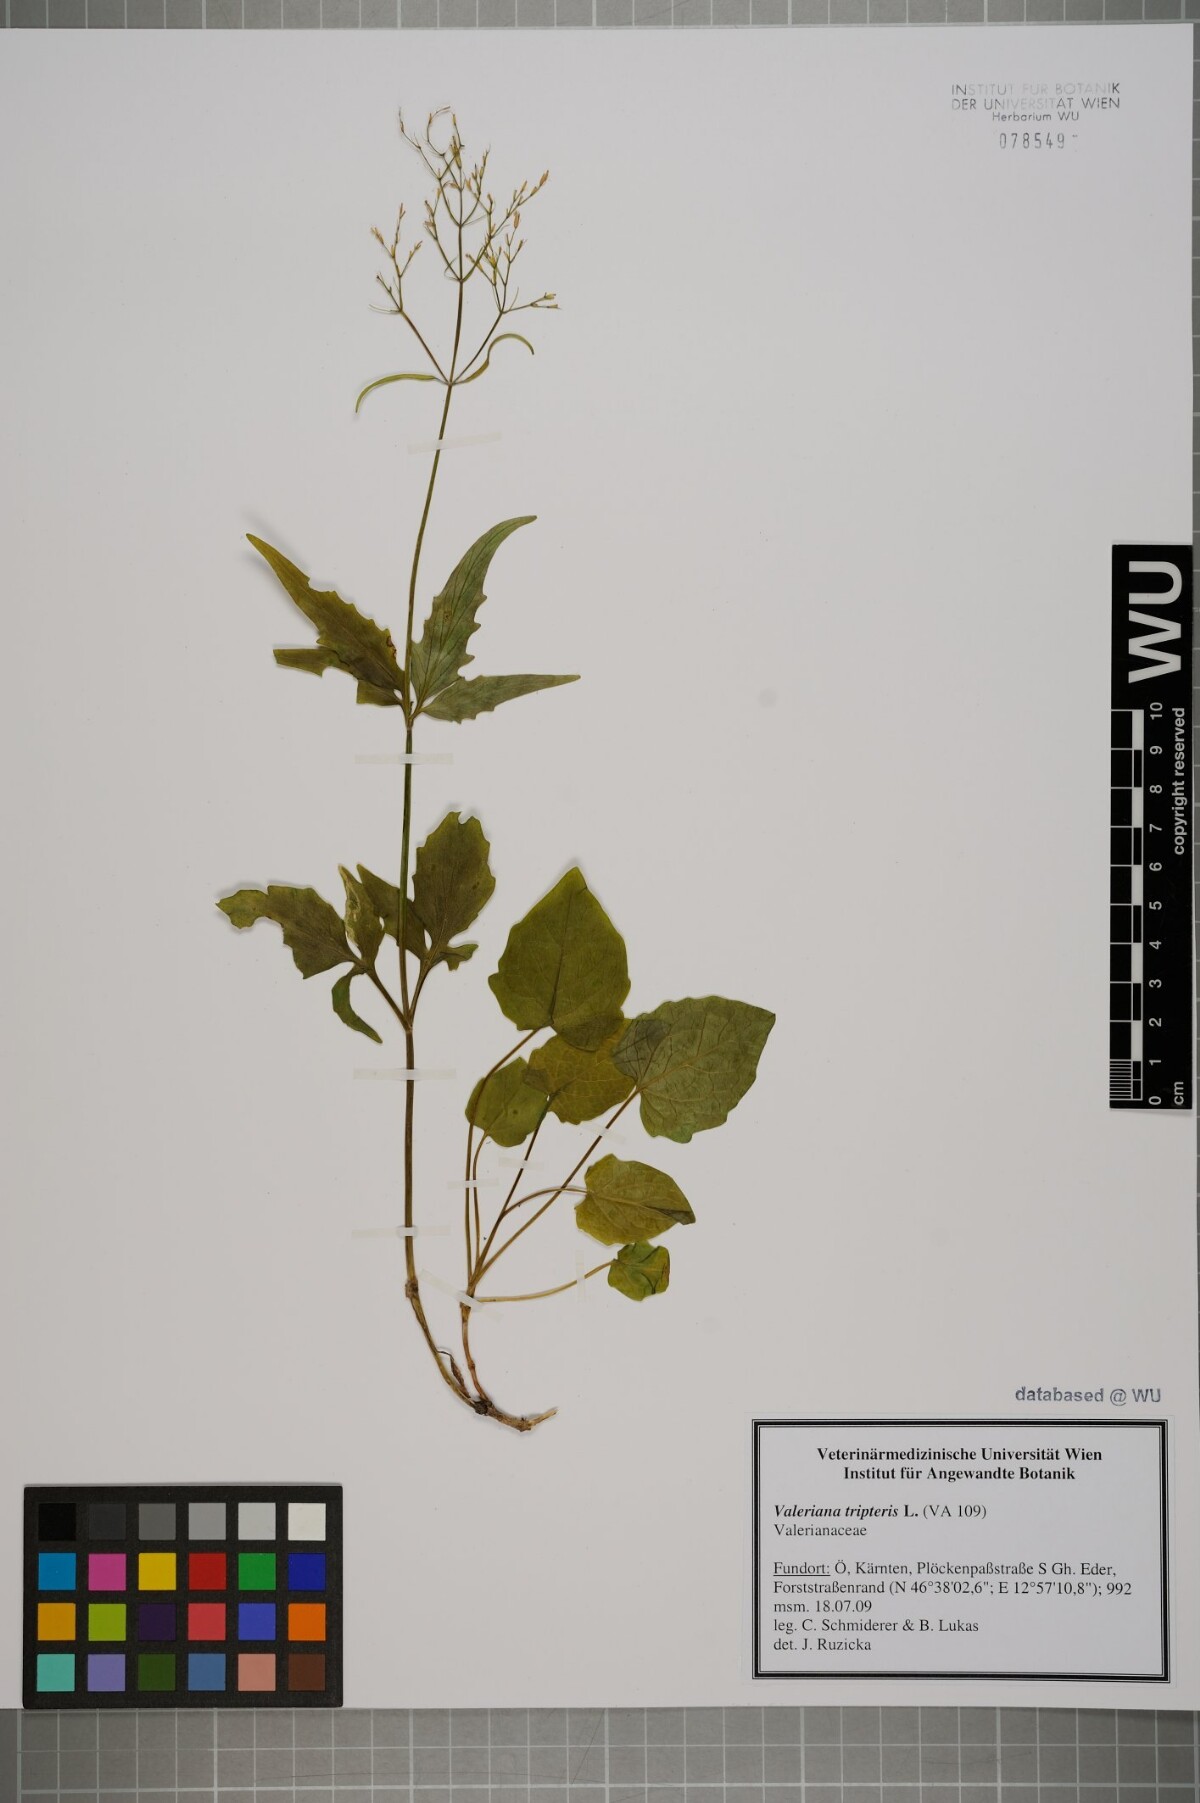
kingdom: Plantae
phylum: Tracheophyta
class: Magnoliopsida
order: Dipsacales
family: Caprifoliaceae
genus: Valeriana
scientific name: Valeriana tripteris
